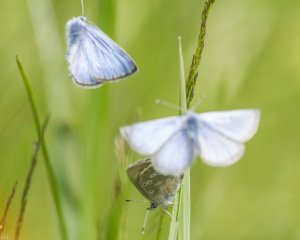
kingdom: Animalia
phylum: Arthropoda
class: Insecta
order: Lepidoptera
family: Lycaenidae
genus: Glaucopsyche
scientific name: Glaucopsyche lygdamus
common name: Silvery Blue
